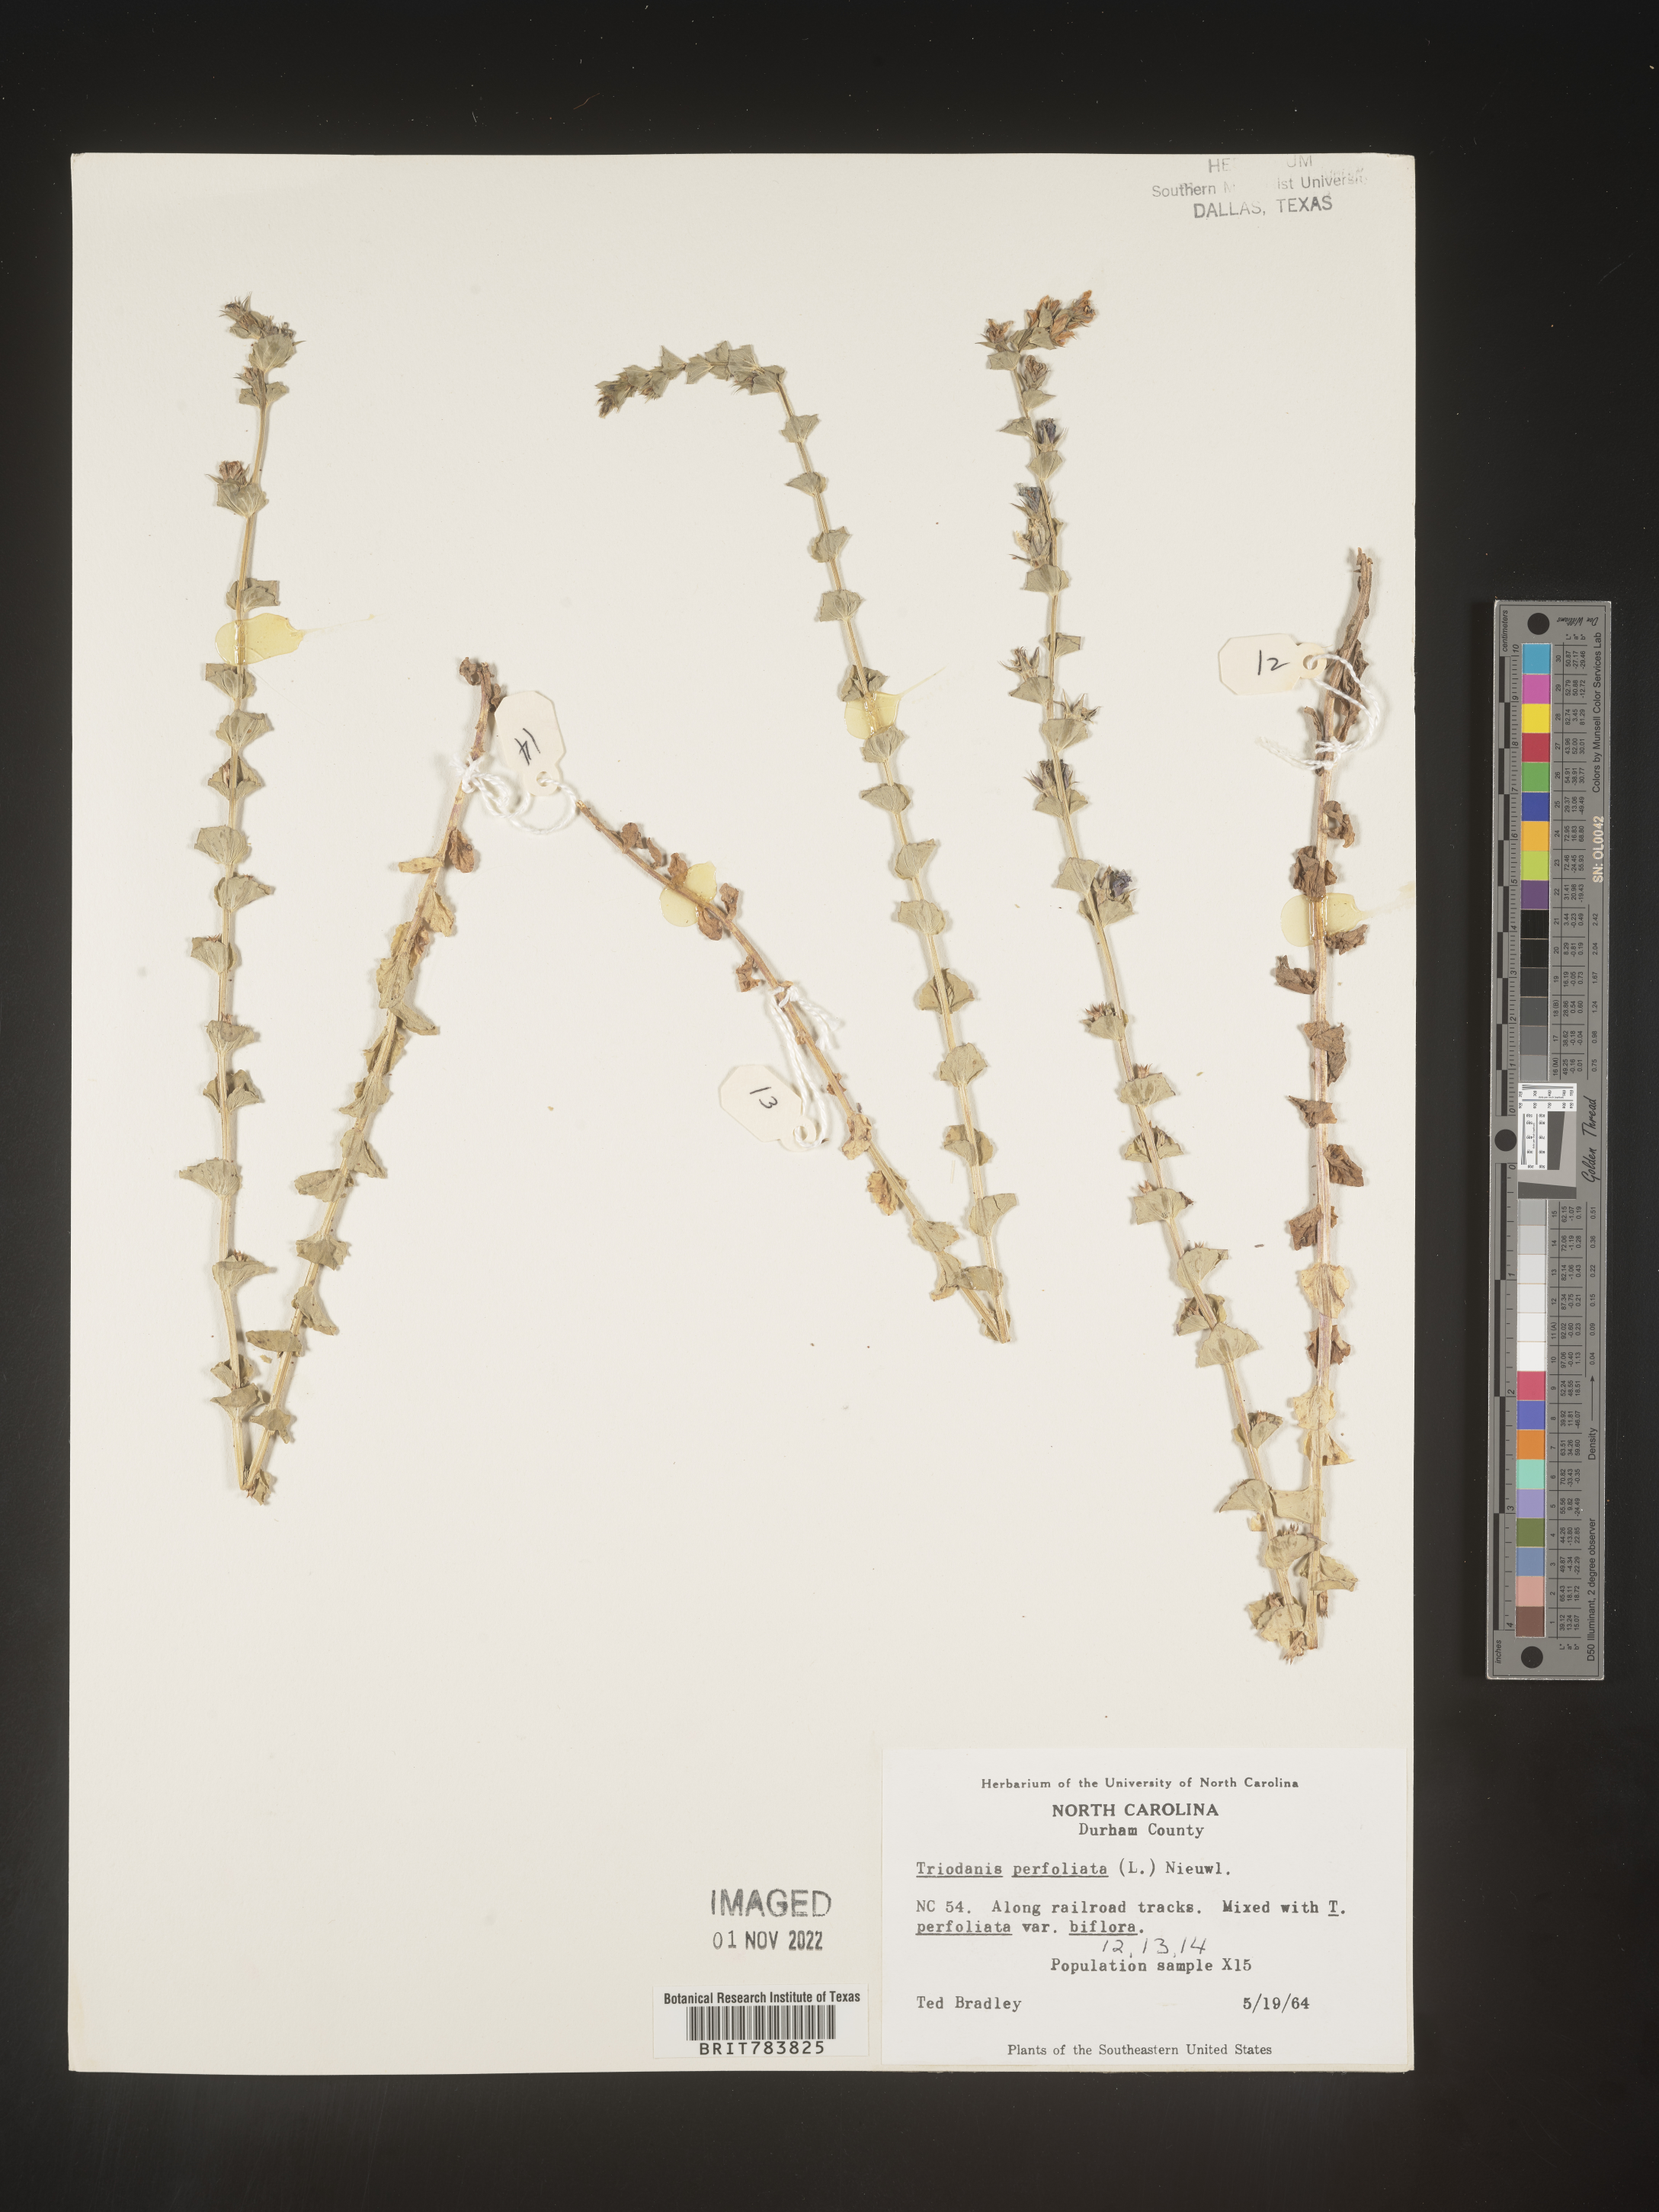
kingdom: Plantae
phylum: Tracheophyta
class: Magnoliopsida
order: Asterales
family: Campanulaceae
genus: Triodanis
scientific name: Triodanis perfoliata
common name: Clasping venus' looking-glass
